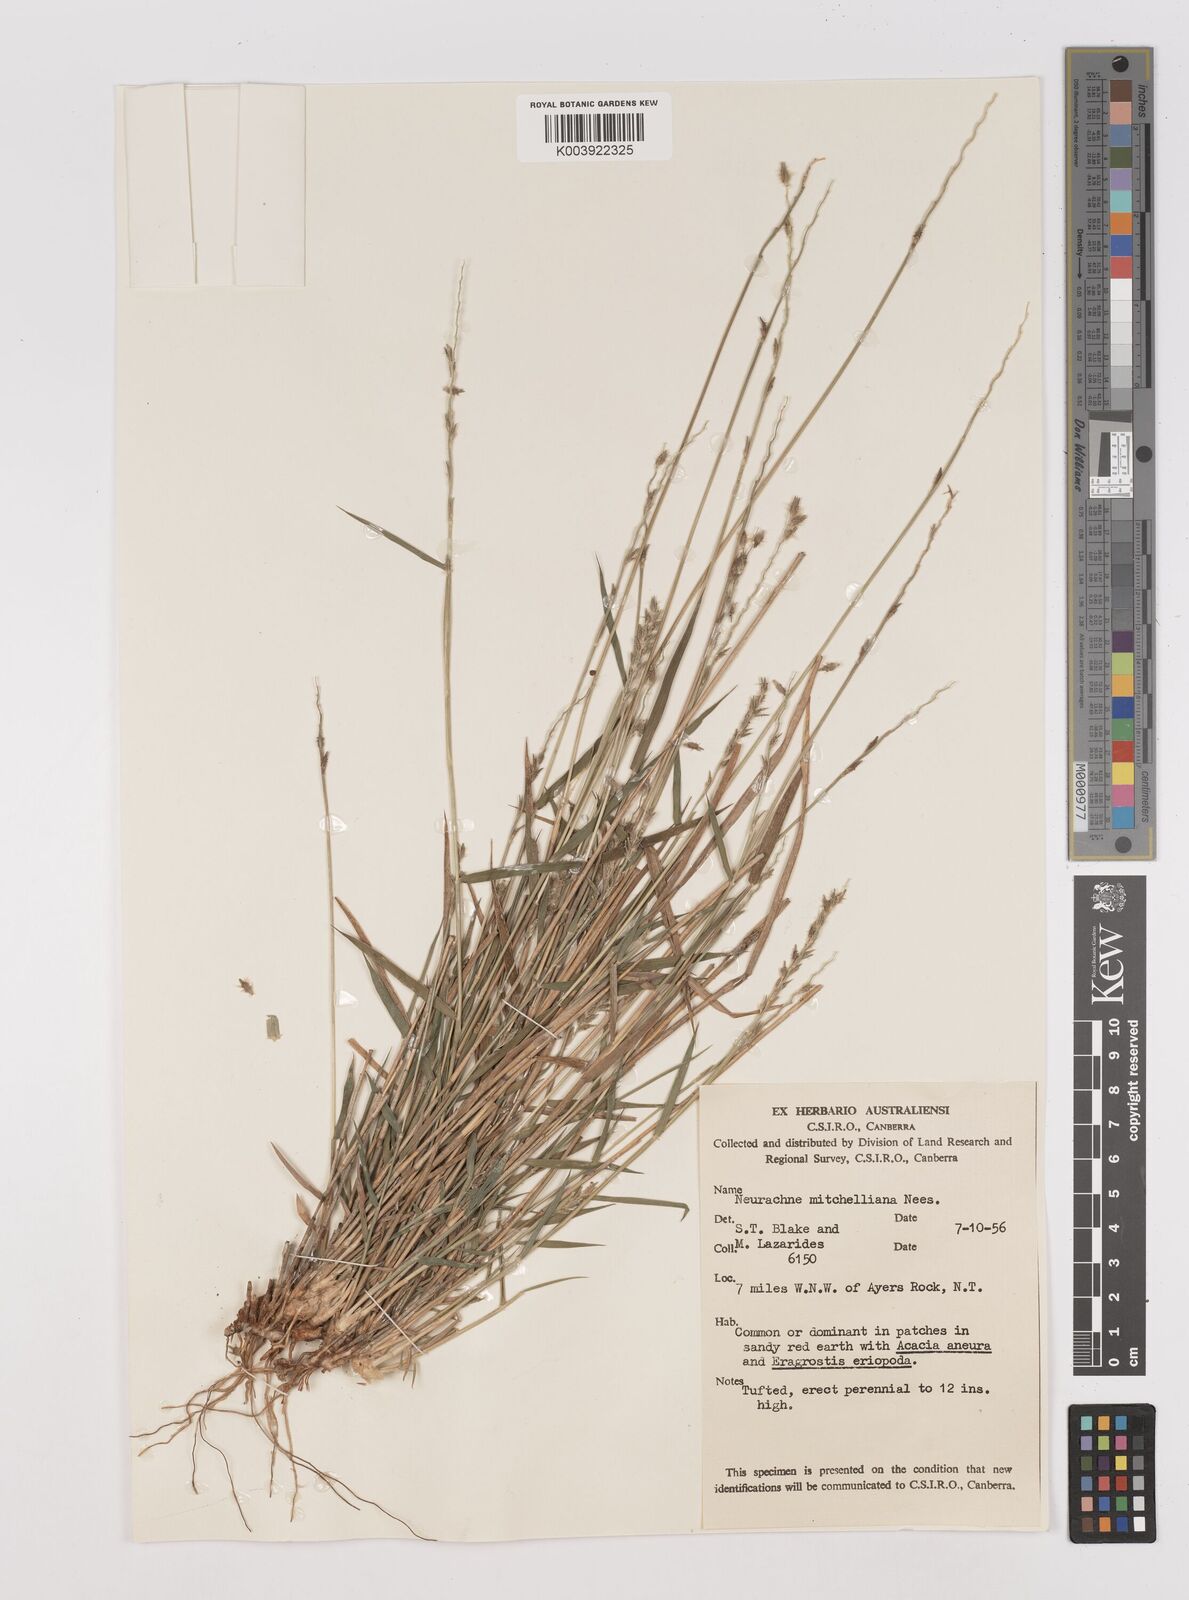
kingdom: Plantae
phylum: Tracheophyta
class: Liliopsida
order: Poales
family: Poaceae
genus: Thyridolepis
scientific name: Thyridolepis mitchelliana
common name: Rock tassel grass
